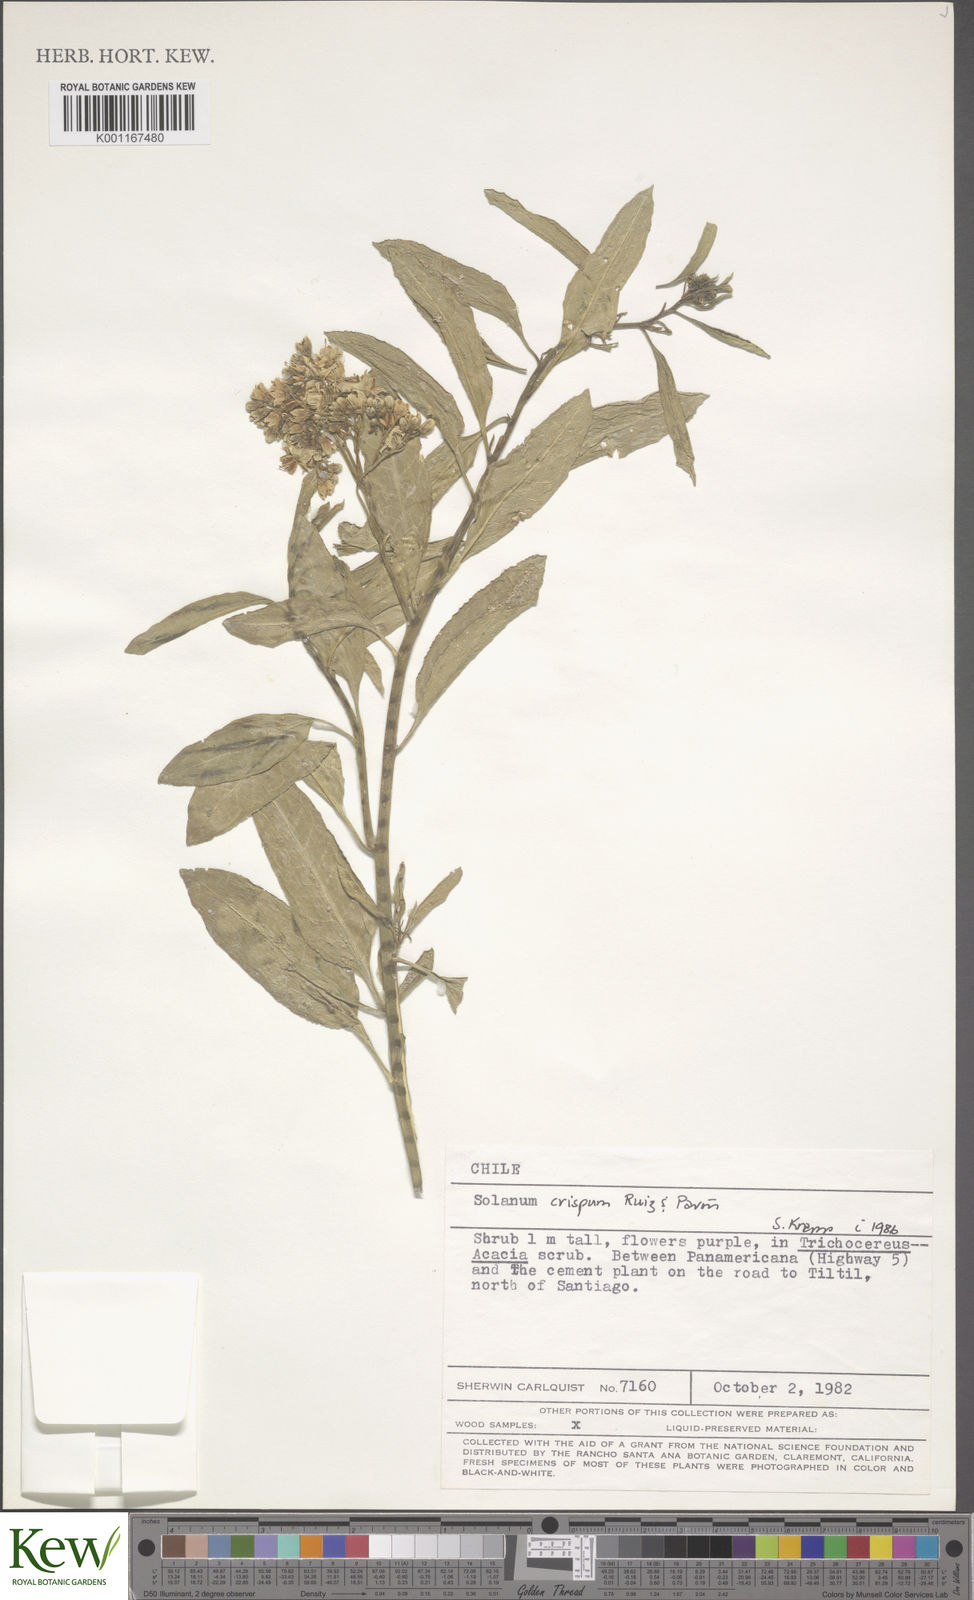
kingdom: Plantae
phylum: Tracheophyta
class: Magnoliopsida
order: Solanales
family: Solanaceae
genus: Solanum
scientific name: Solanum crispum
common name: Chilean nightshade
